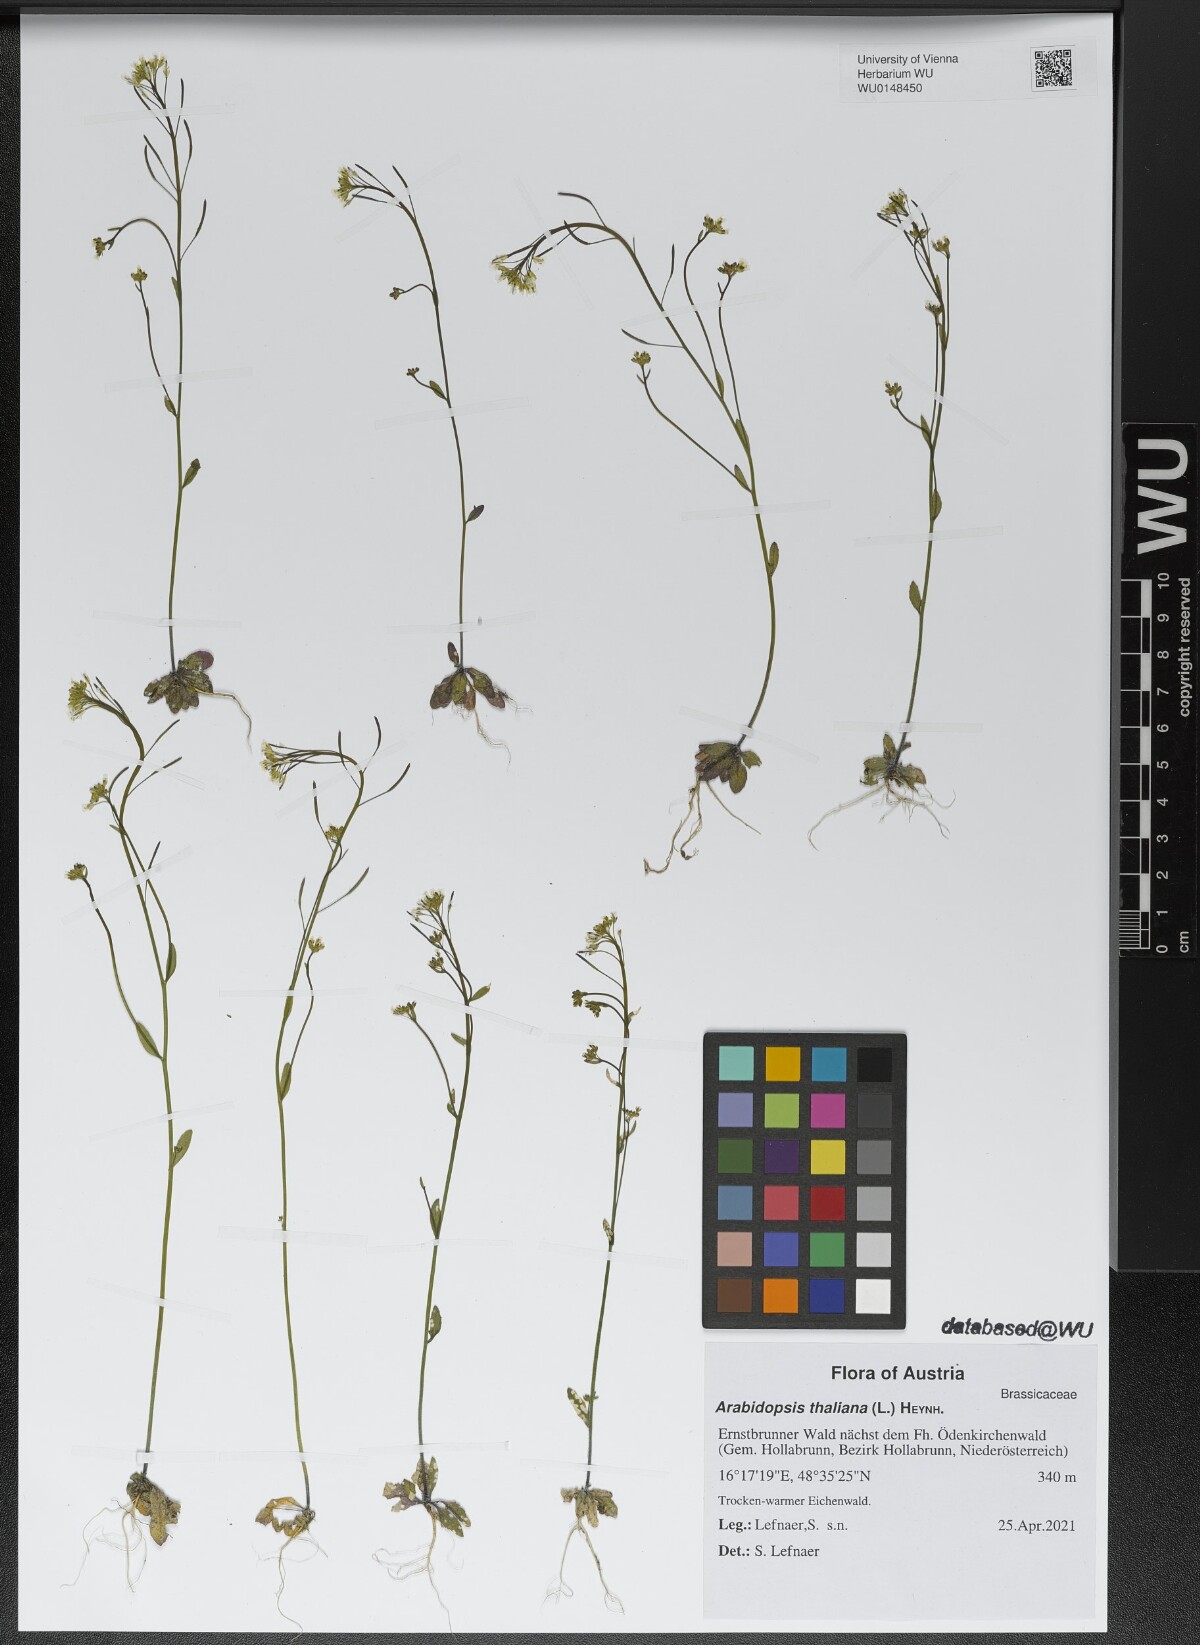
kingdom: Plantae
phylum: Tracheophyta
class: Magnoliopsida
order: Brassicales
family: Brassicaceae
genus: Arabidopsis
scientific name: Arabidopsis thaliana
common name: Thale cress
